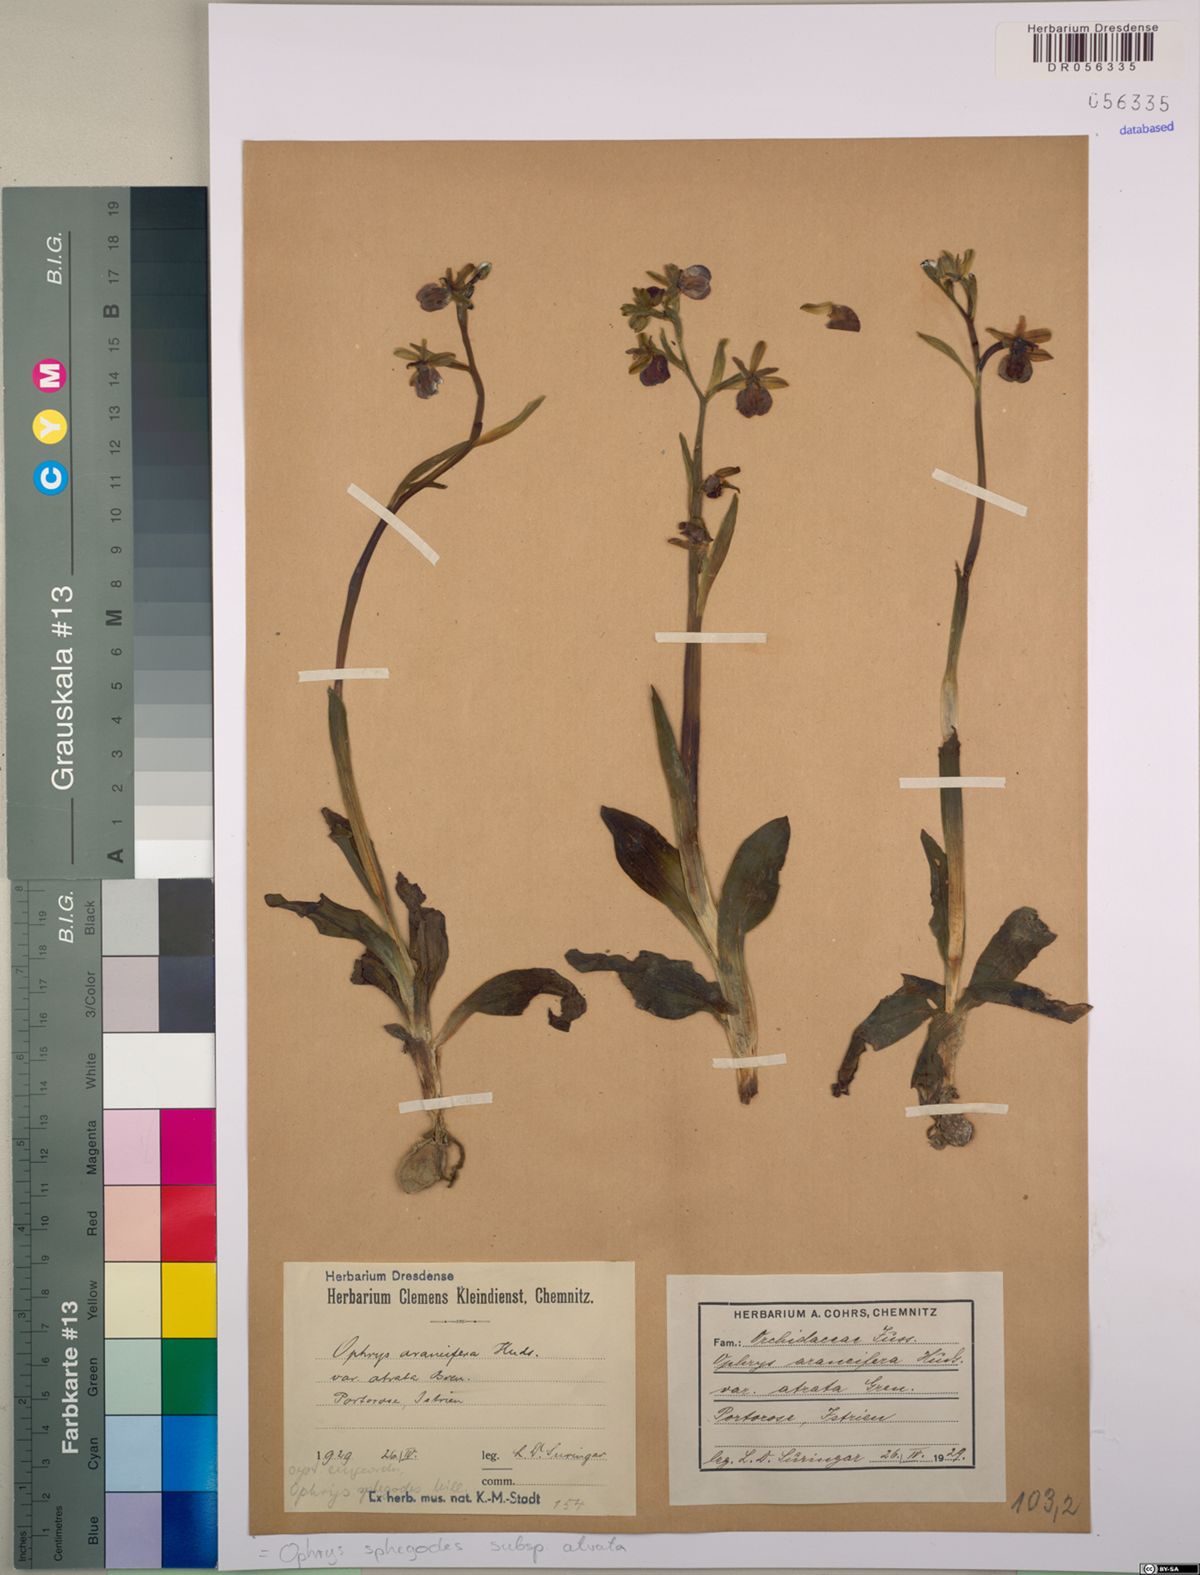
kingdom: Plantae
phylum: Tracheophyta
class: Liliopsida
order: Asparagales
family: Orchidaceae
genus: Ophrys
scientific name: Ophrys sphegodes
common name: Early spider-orchid
